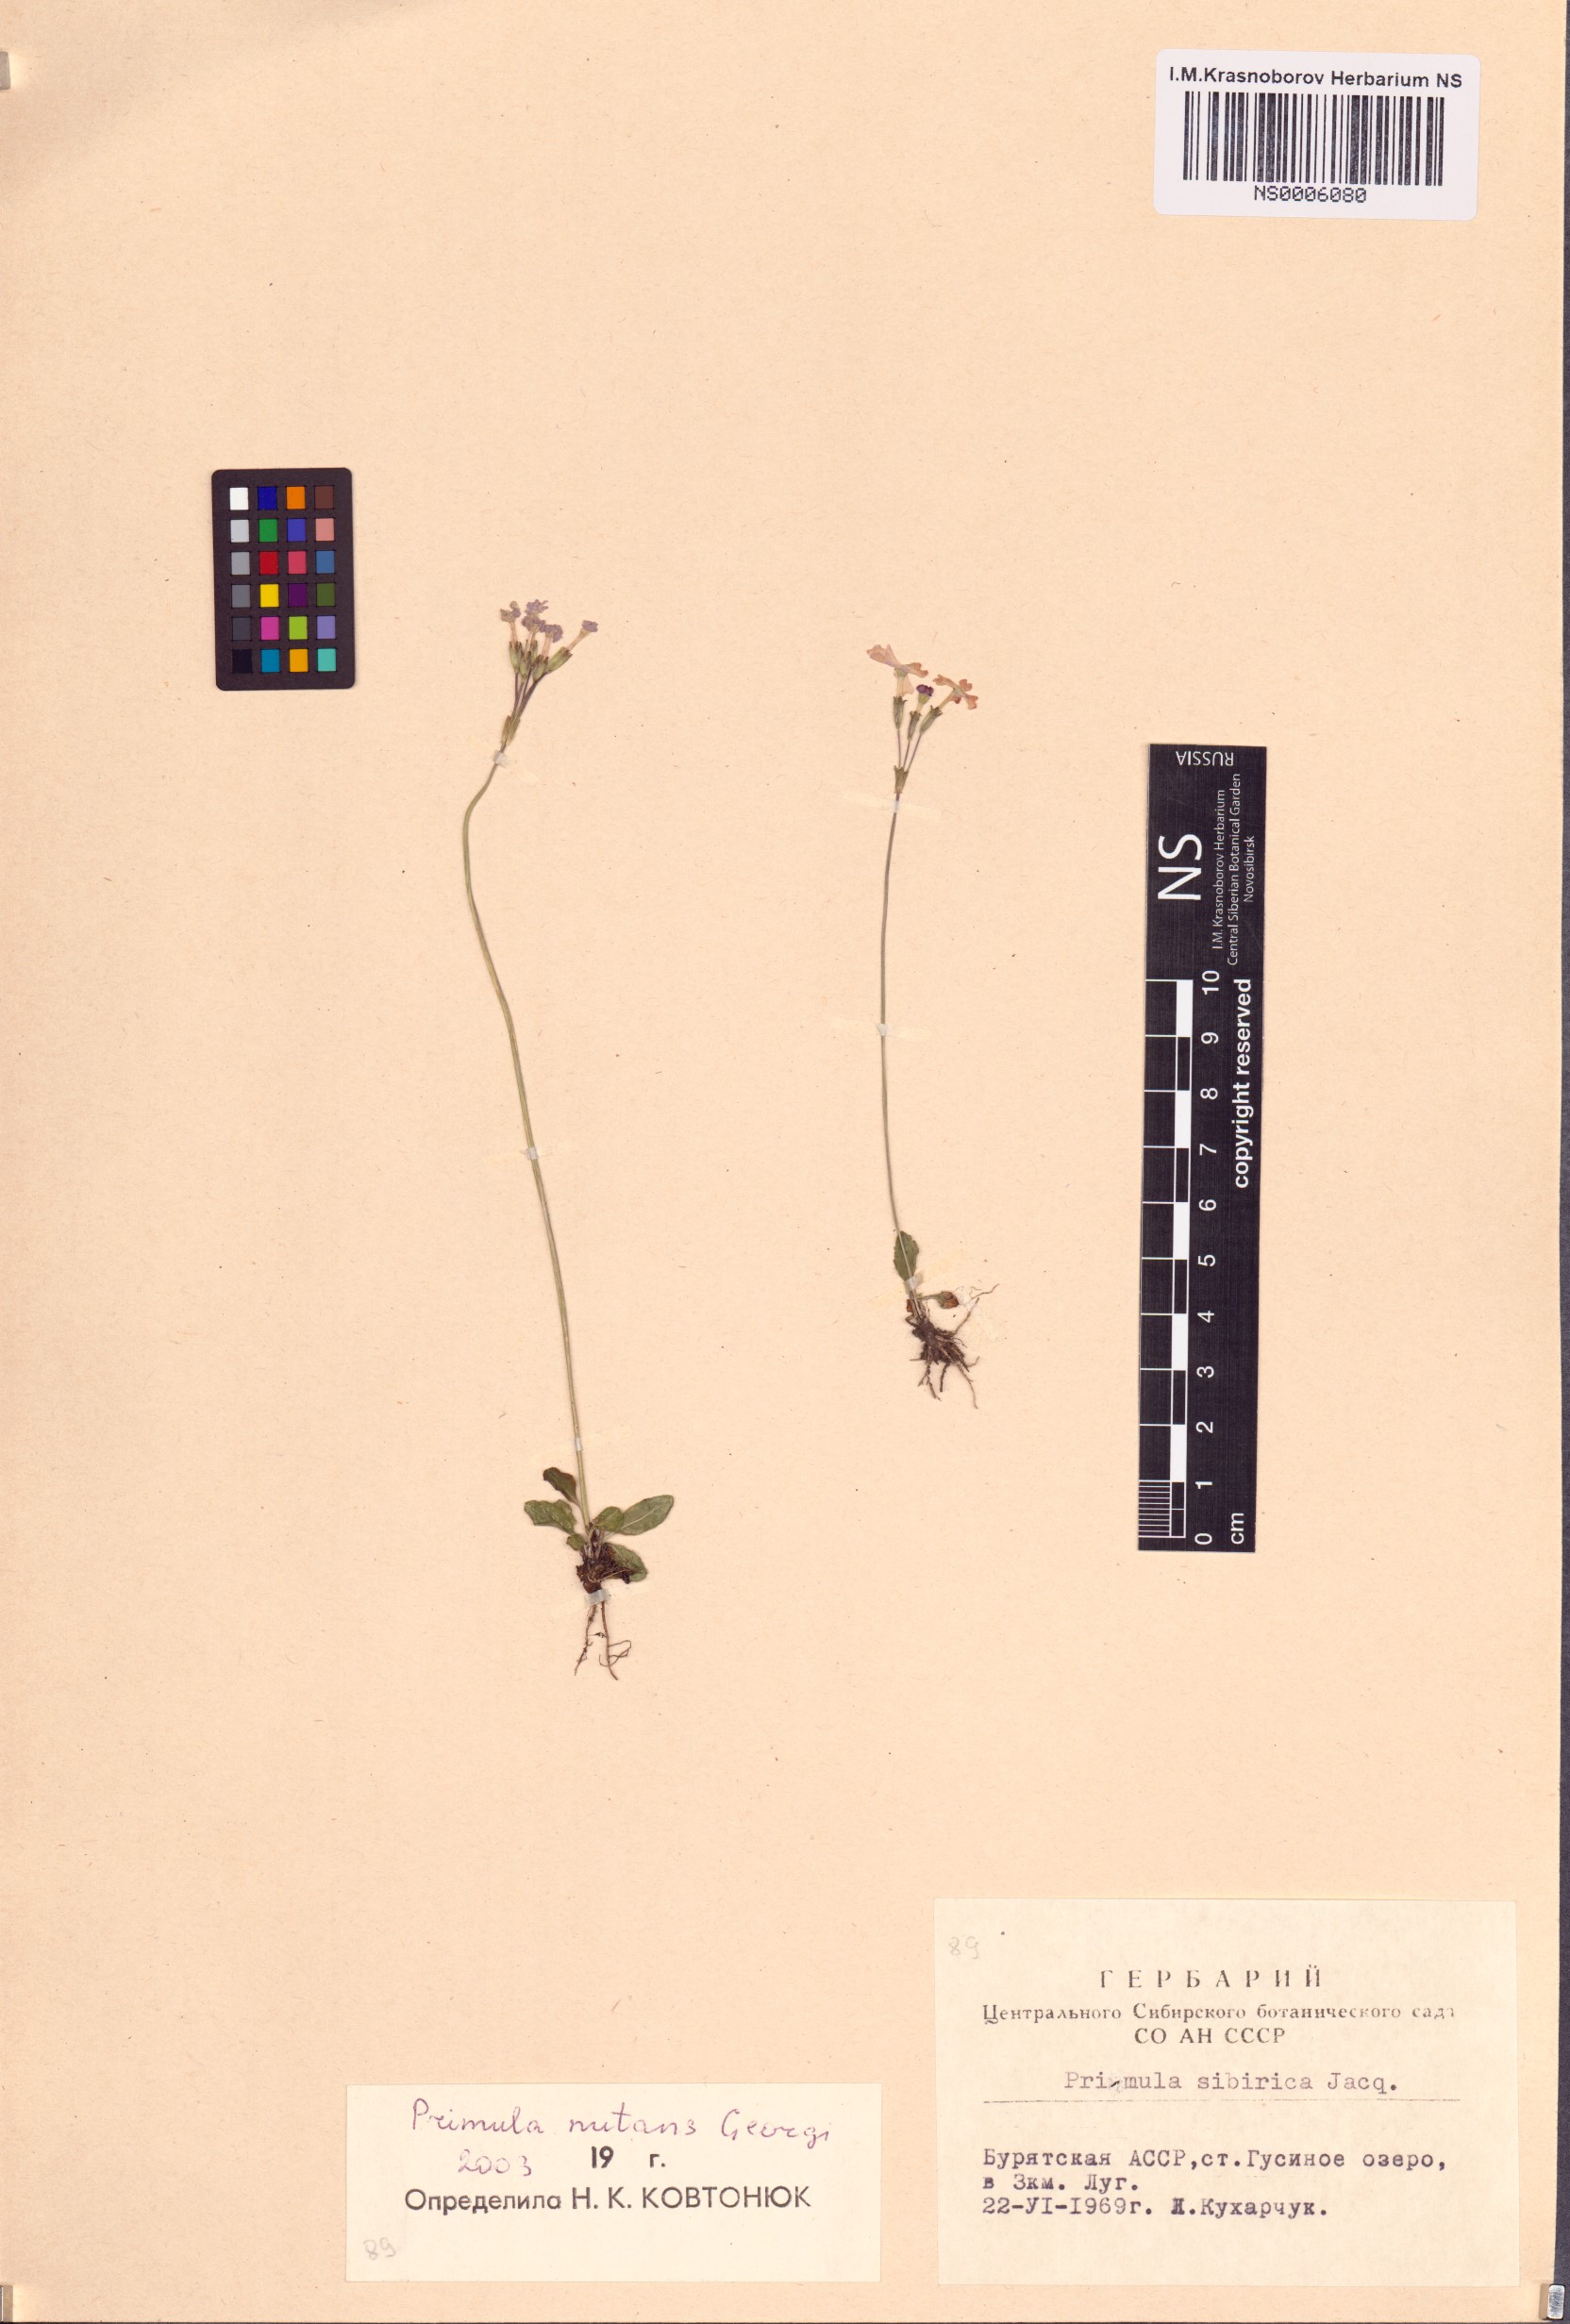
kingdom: Plantae
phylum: Tracheophyta
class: Magnoliopsida
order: Ericales
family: Primulaceae
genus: Primula
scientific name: Primula nutans
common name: Siberian primrose
